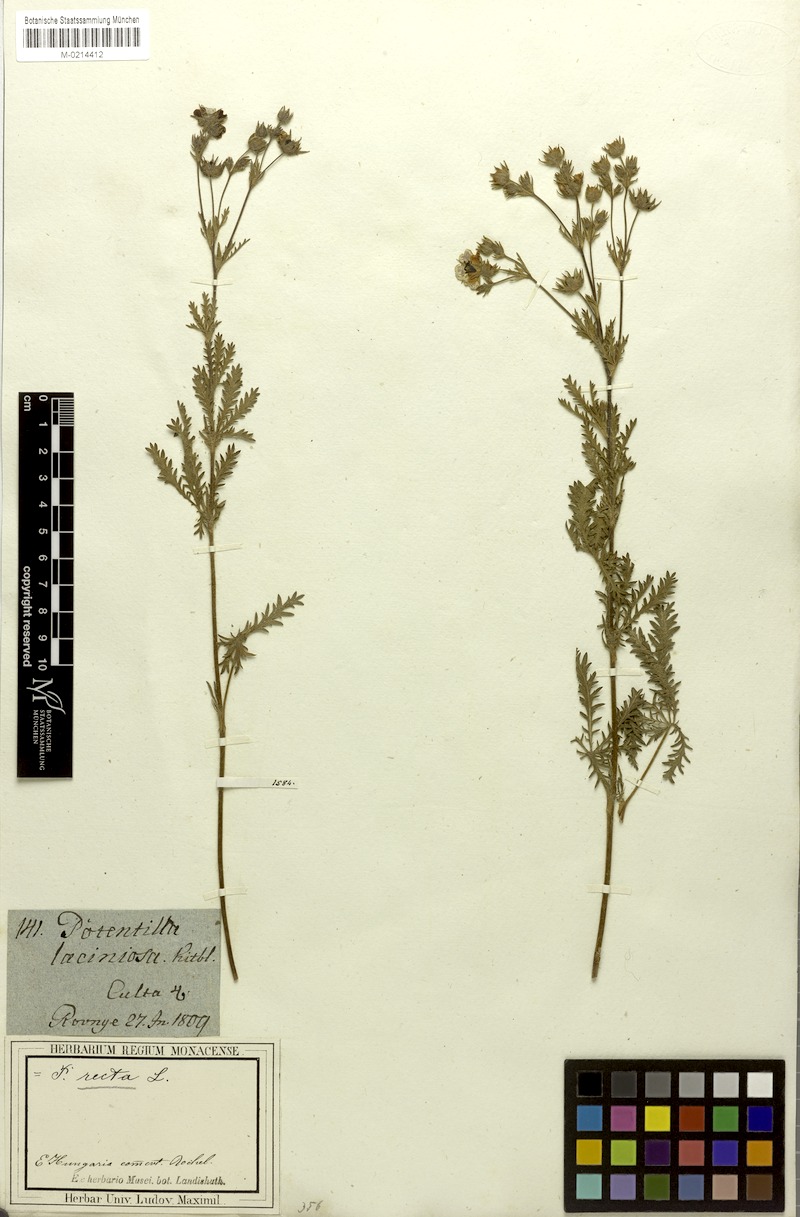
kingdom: Plantae
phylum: Tracheophyta
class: Magnoliopsida
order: Rosales
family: Rosaceae
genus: Potentilla
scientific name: Potentilla recta
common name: Sulphur cinquefoil
